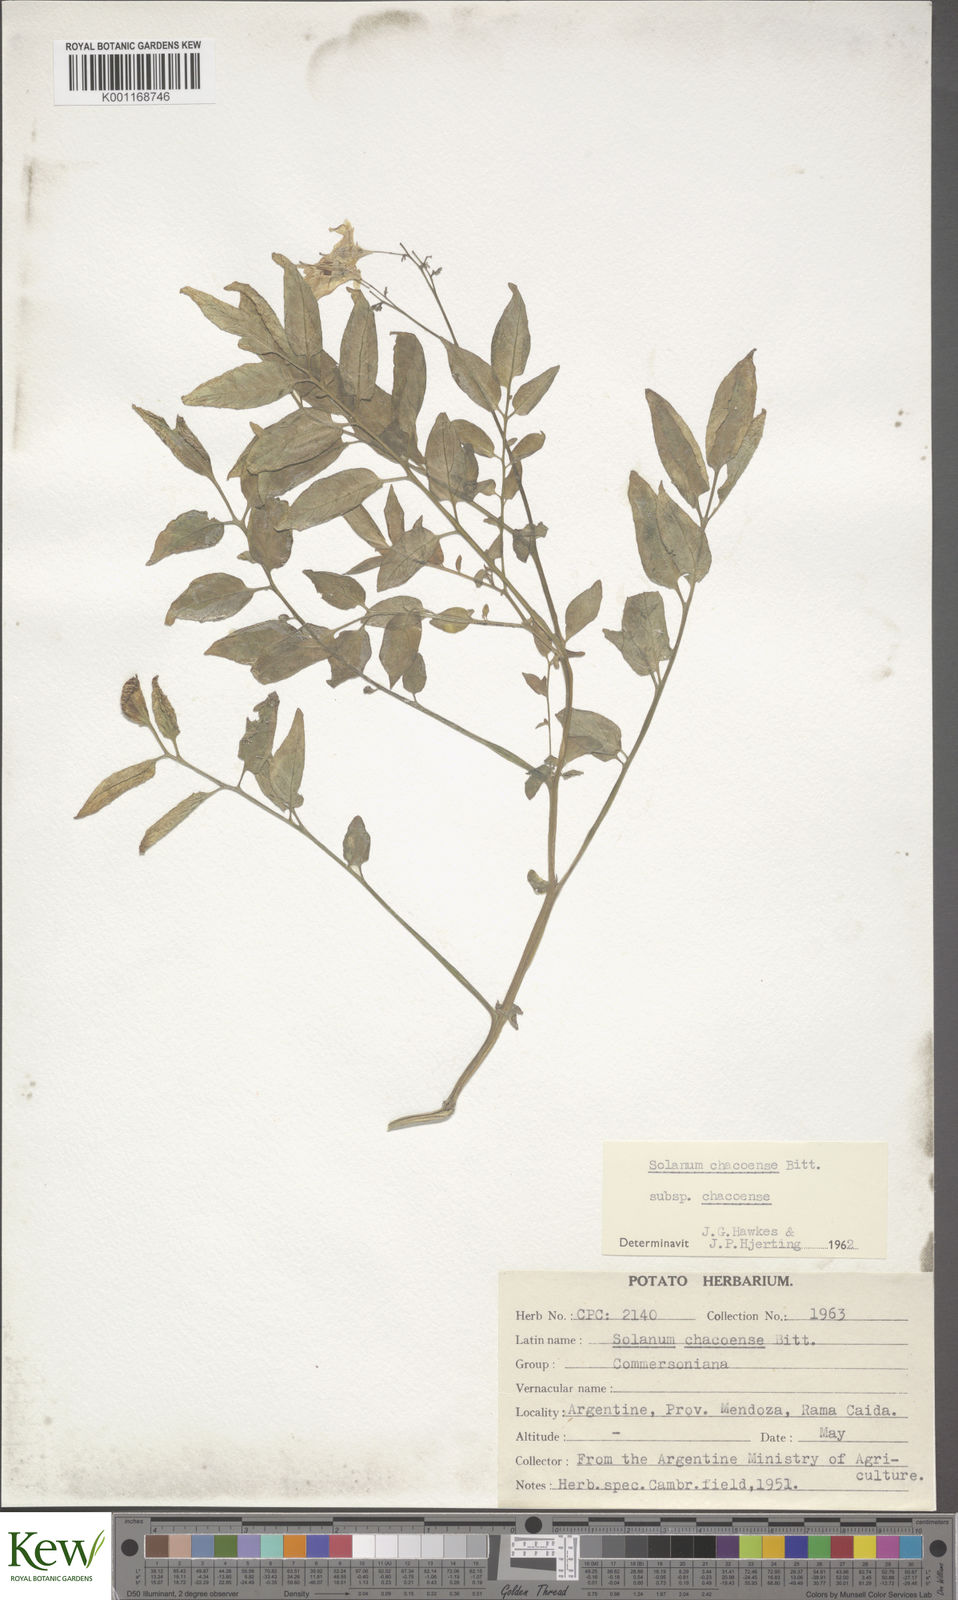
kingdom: Plantae
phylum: Tracheophyta
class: Magnoliopsida
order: Solanales
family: Solanaceae
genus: Solanum
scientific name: Solanum chacoense
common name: Chaco potato
